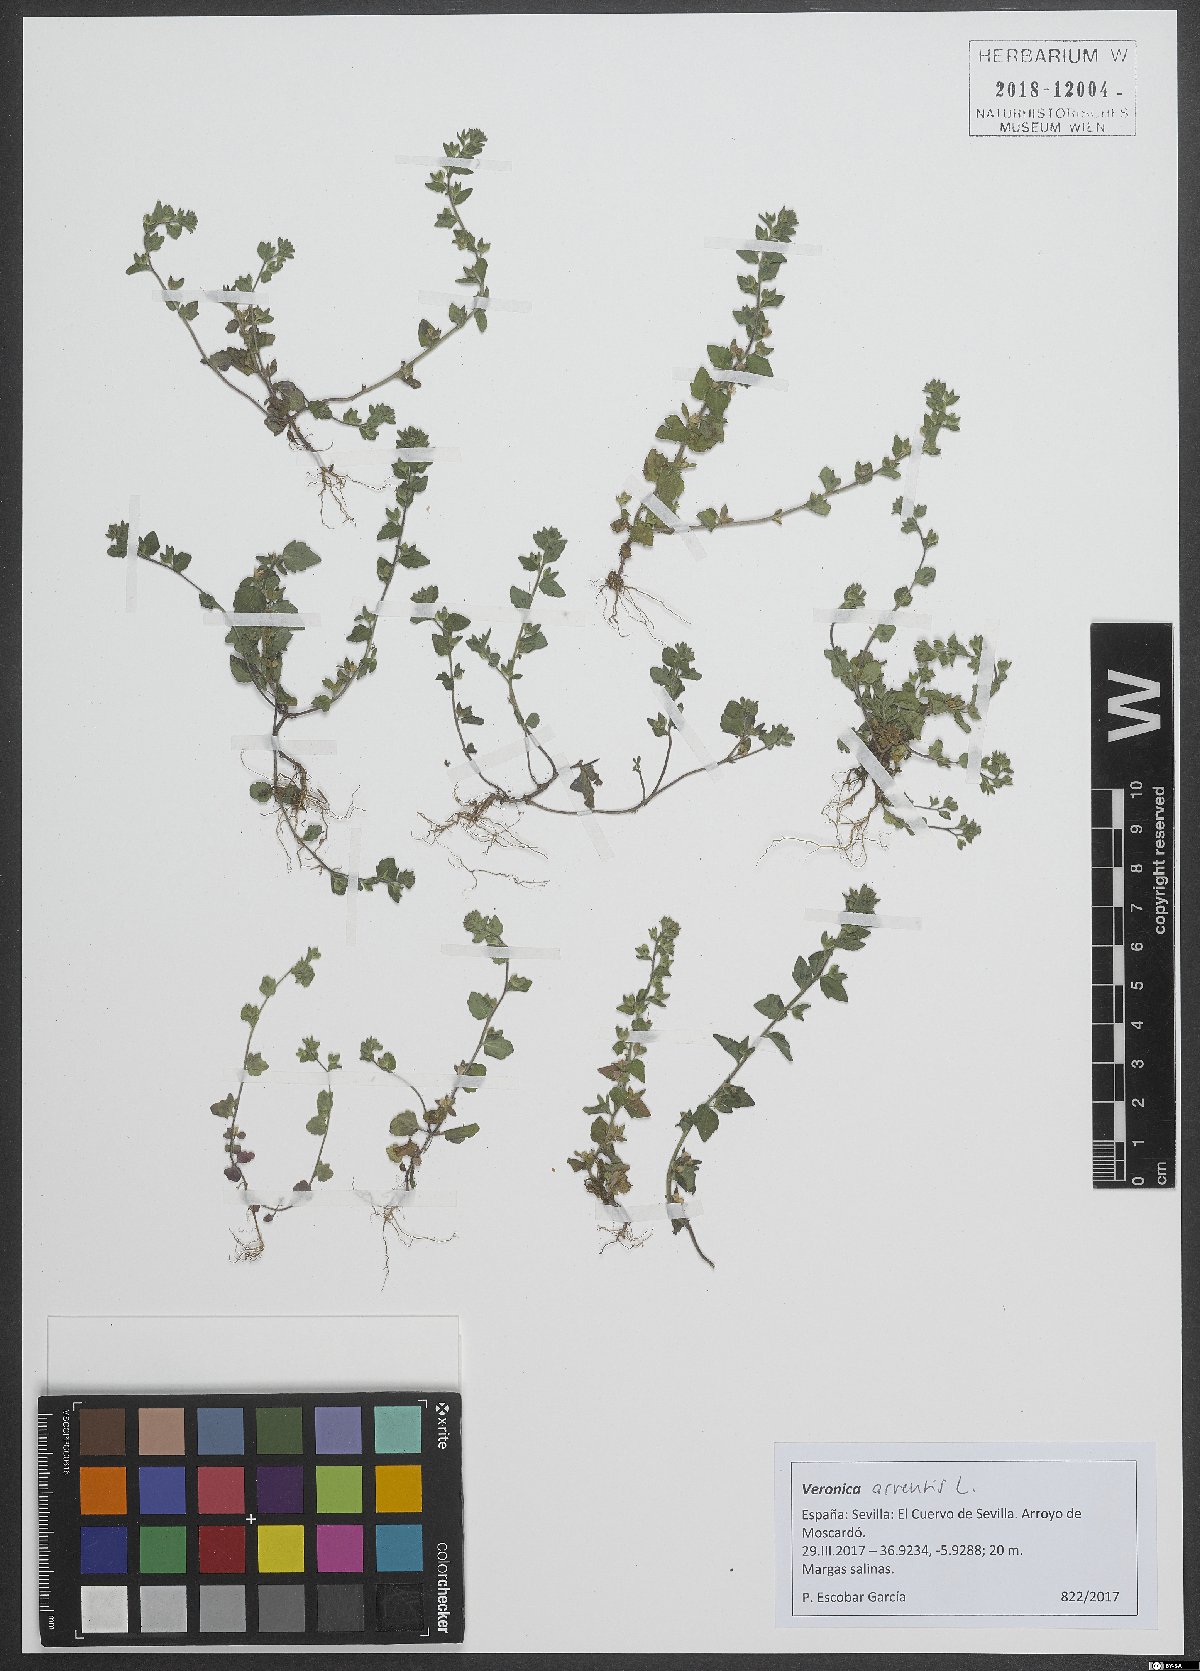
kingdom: Plantae
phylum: Tracheophyta
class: Magnoliopsida
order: Lamiales
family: Plantaginaceae
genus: Veronica
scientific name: Veronica arvensis
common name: Corn speedwell
